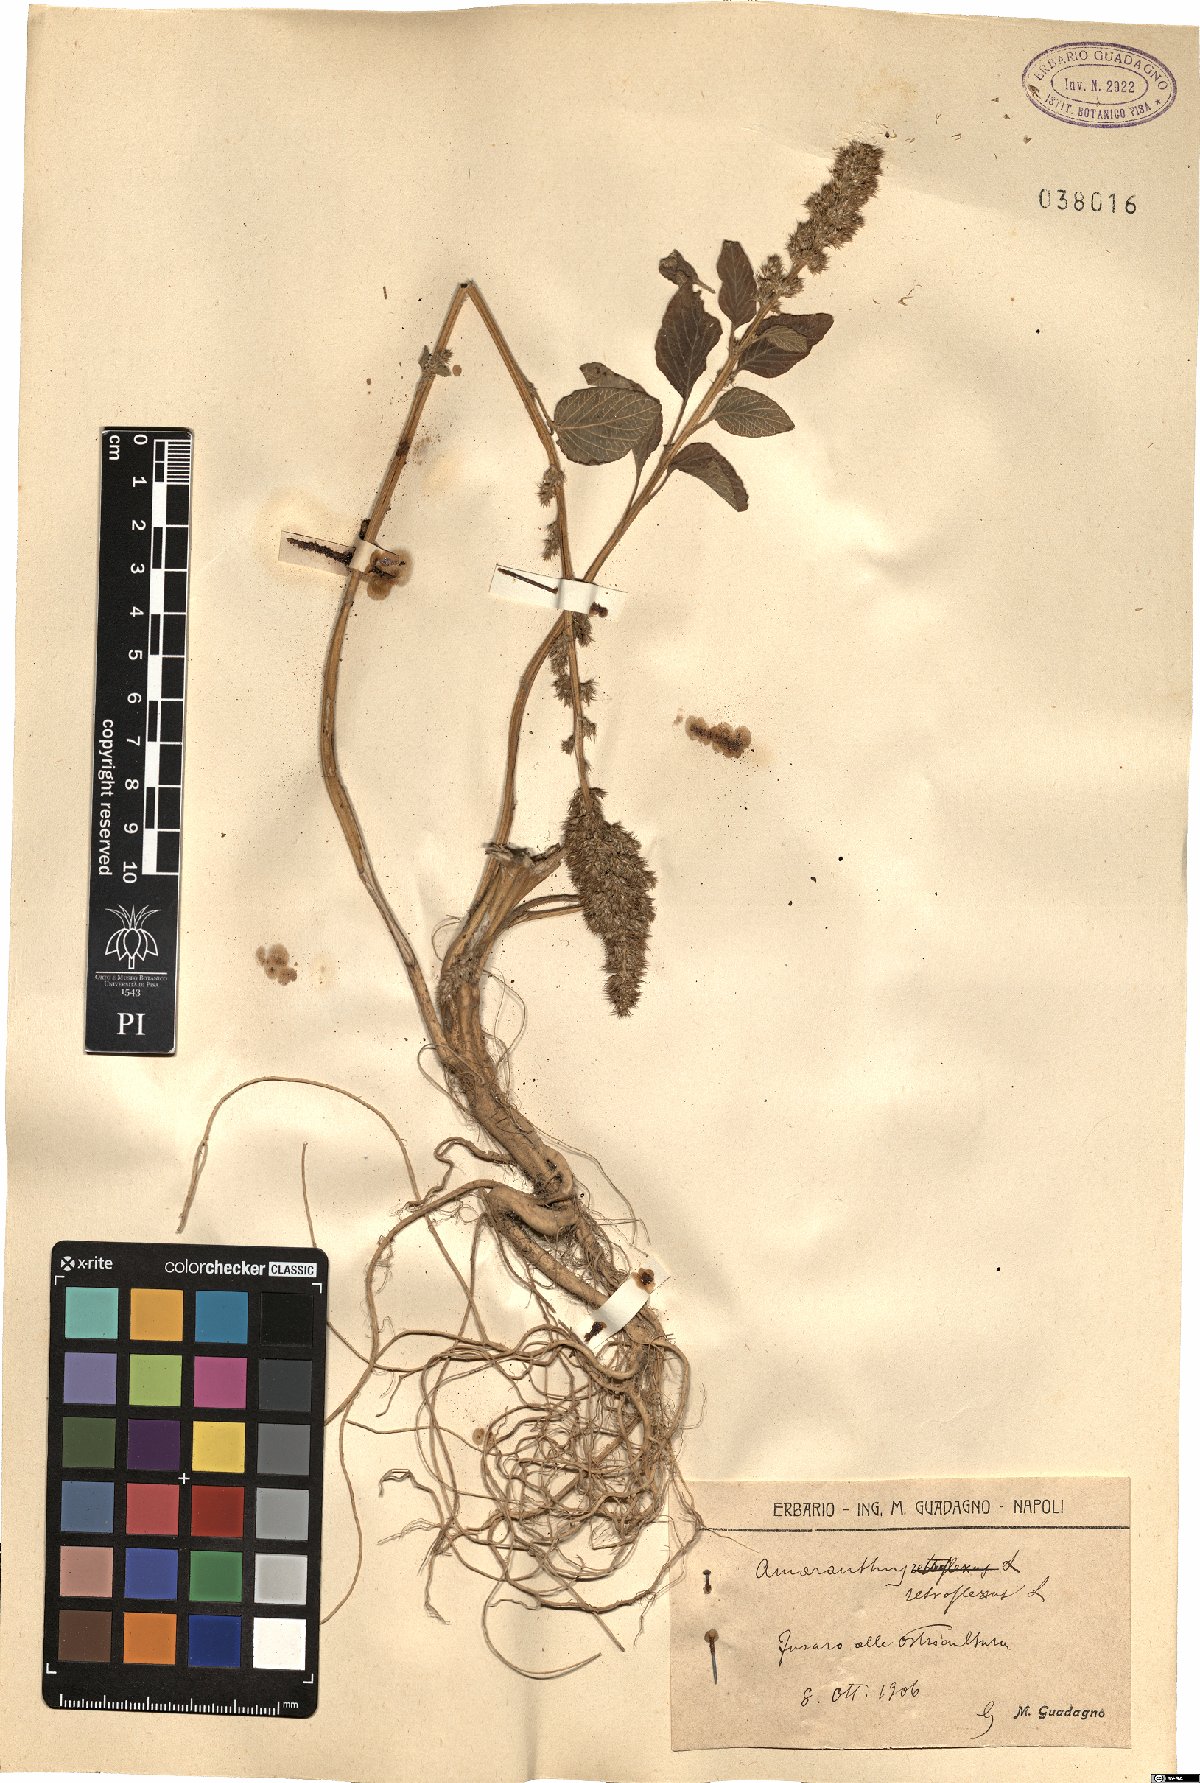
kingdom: Plantae
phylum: Tracheophyta
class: Magnoliopsida
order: Caryophyllales
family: Amaranthaceae
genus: Amaranthus
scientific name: Amaranthus retroflexus
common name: Redroot amaranth
